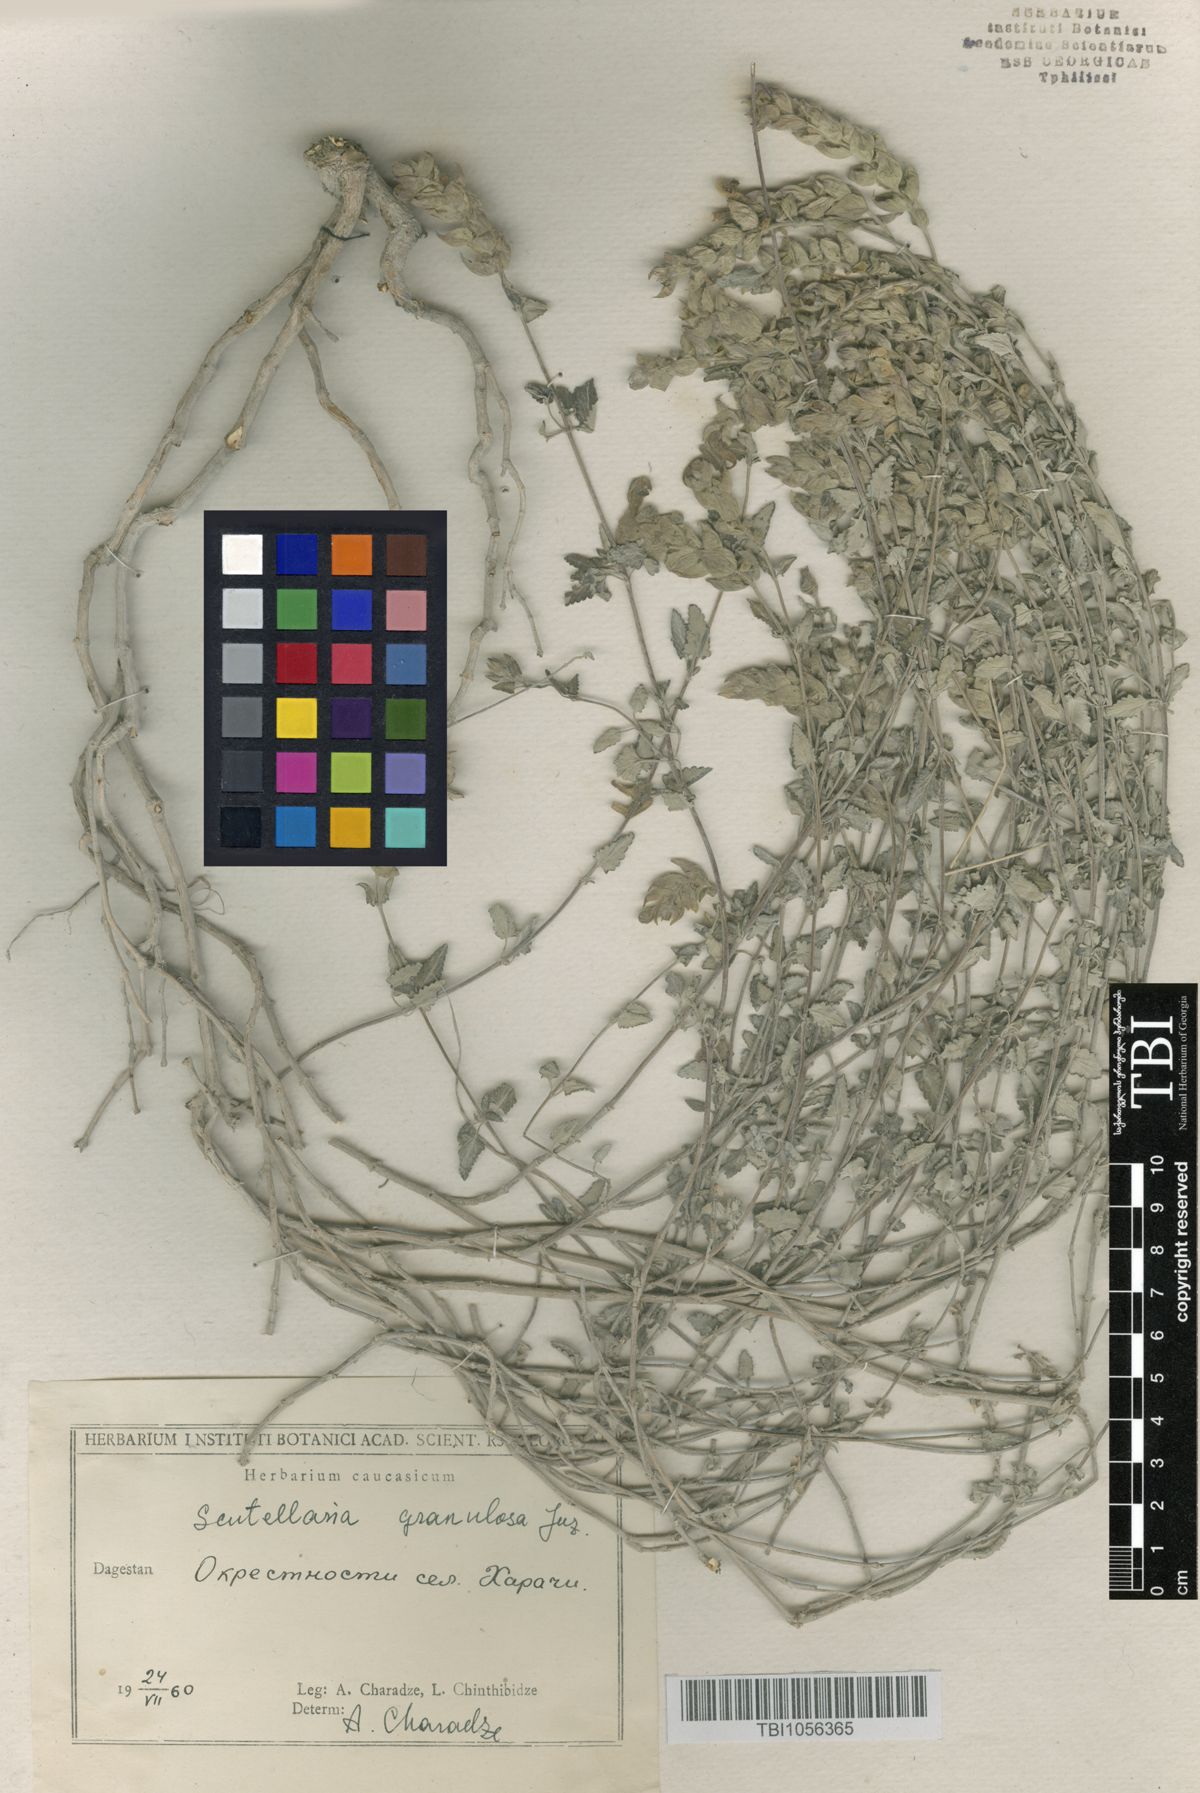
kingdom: Plantae
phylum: Tracheophyta
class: Magnoliopsida
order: Lamiales
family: Lamiaceae
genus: Scutellaria
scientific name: Scutellaria granulosa
